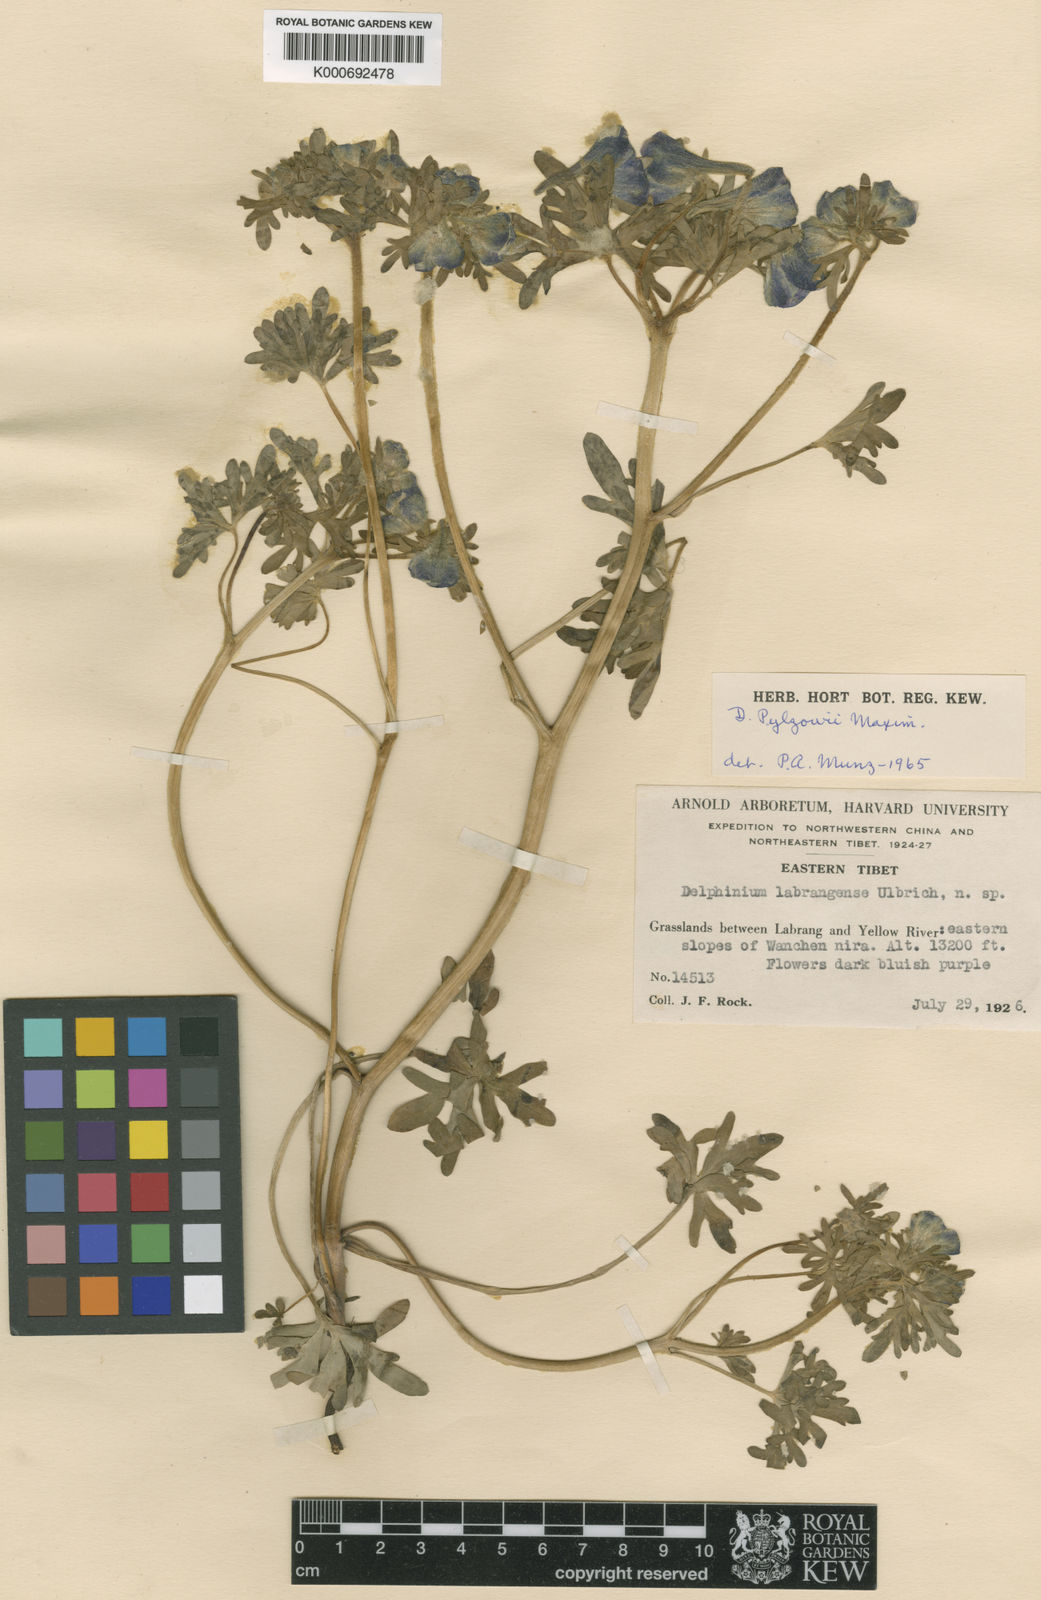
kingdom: Plantae
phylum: Tracheophyta
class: Magnoliopsida
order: Ranunculales
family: Ranunculaceae
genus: Delphinium
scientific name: Delphinium
